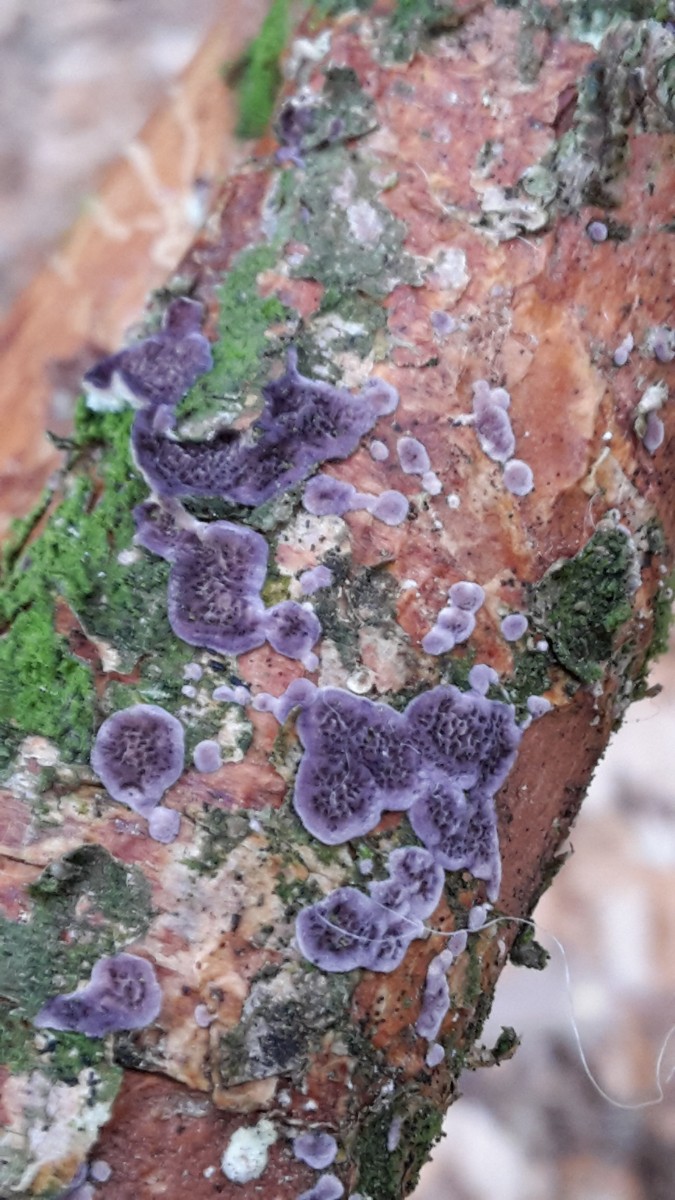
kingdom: Fungi
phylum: Basidiomycota
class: Agaricomycetes
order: Hymenochaetales
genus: Trichaptum
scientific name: Trichaptum fuscoviolaceum
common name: tandet violporesvamp
